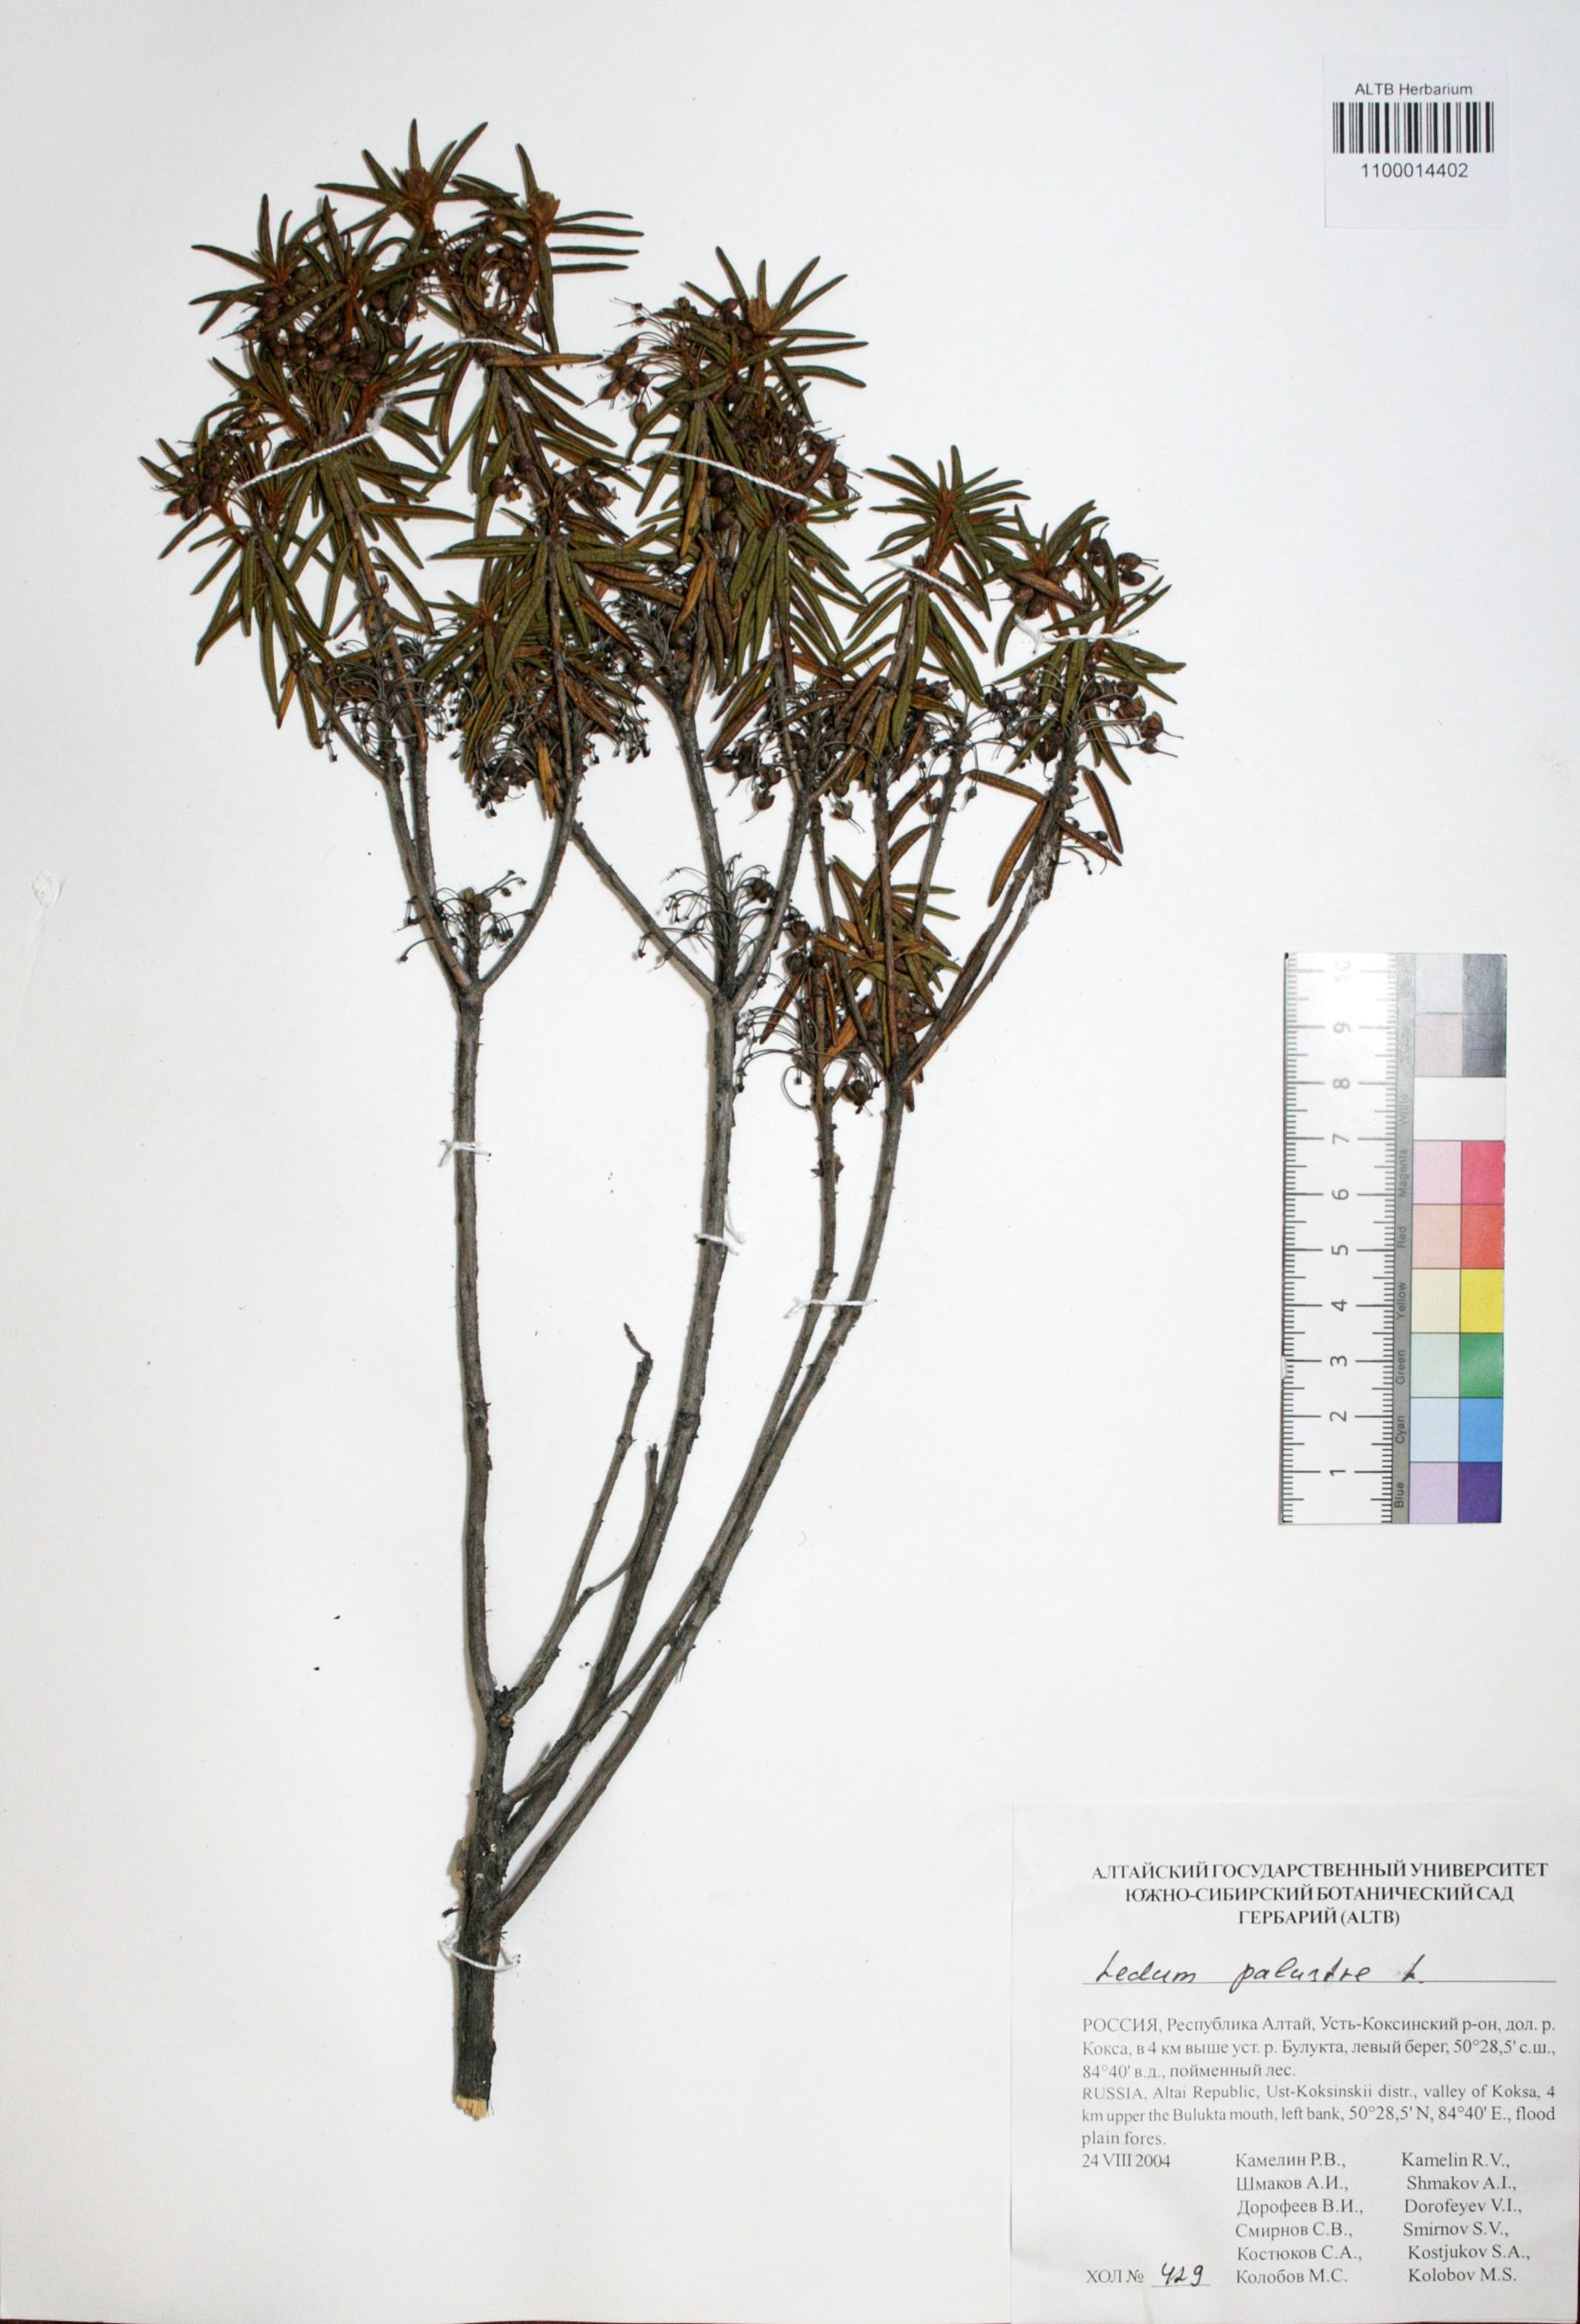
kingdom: Plantae
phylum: Tracheophyta
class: Magnoliopsida
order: Ericales
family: Ericaceae
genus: Rhododendron
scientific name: Rhododendron tomentosum
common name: Marsh labrador tea
